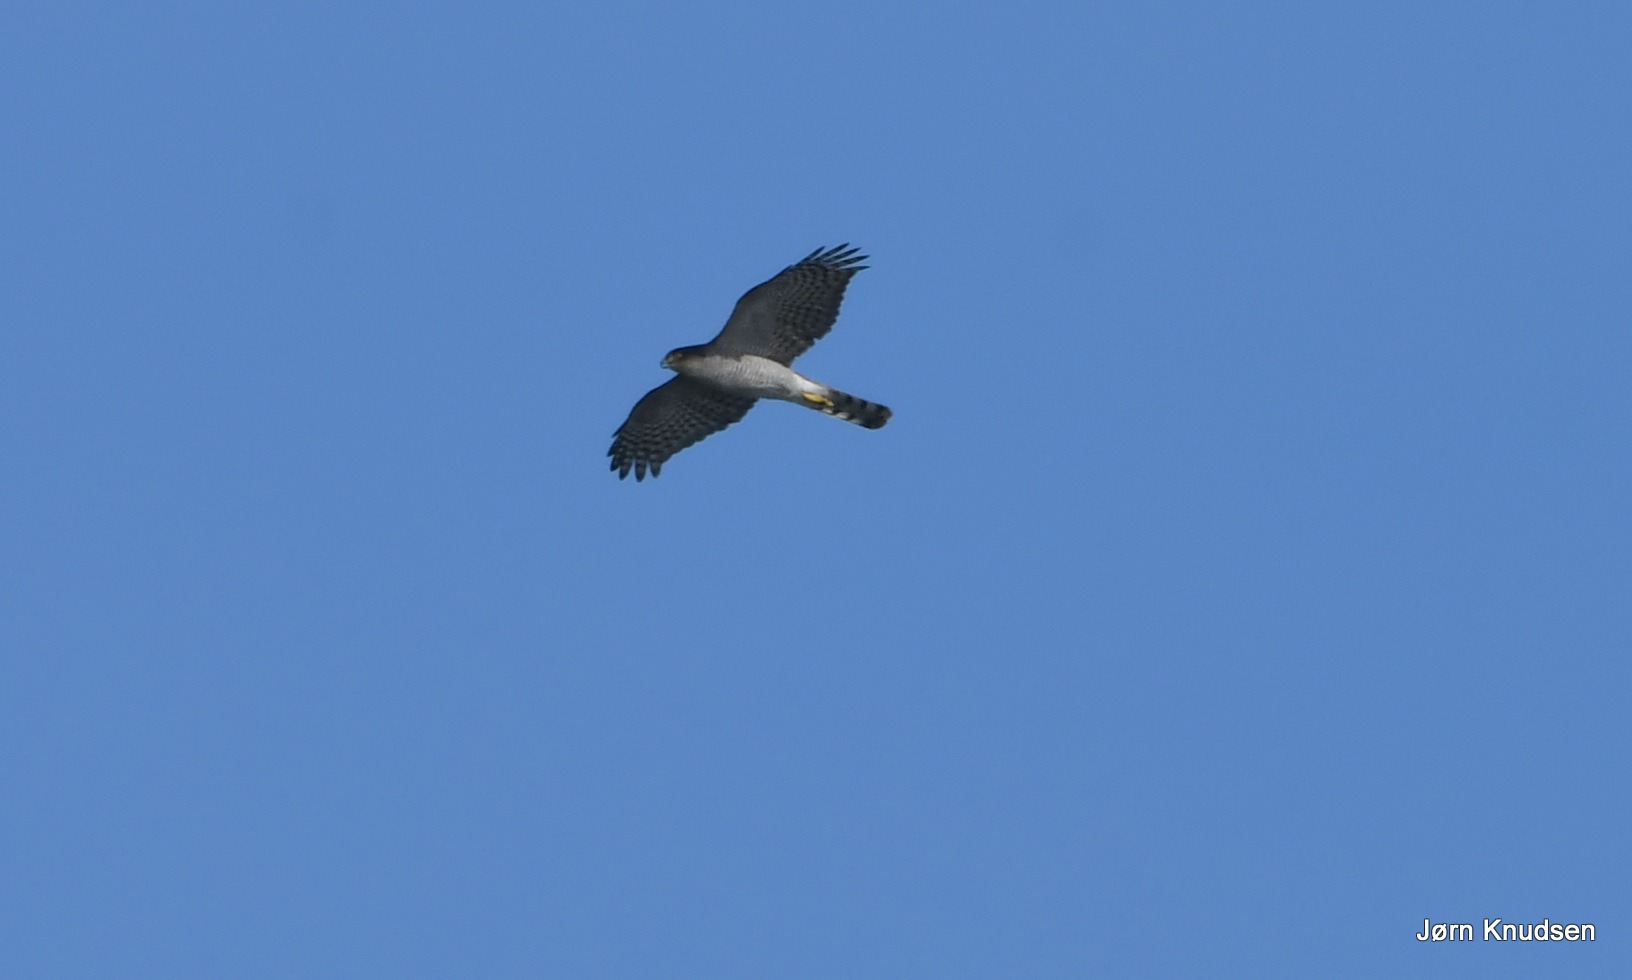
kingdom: Animalia
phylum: Chordata
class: Aves
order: Accipitriformes
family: Accipitridae
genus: Accipiter
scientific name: Accipiter nisus
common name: Spurvehøg
